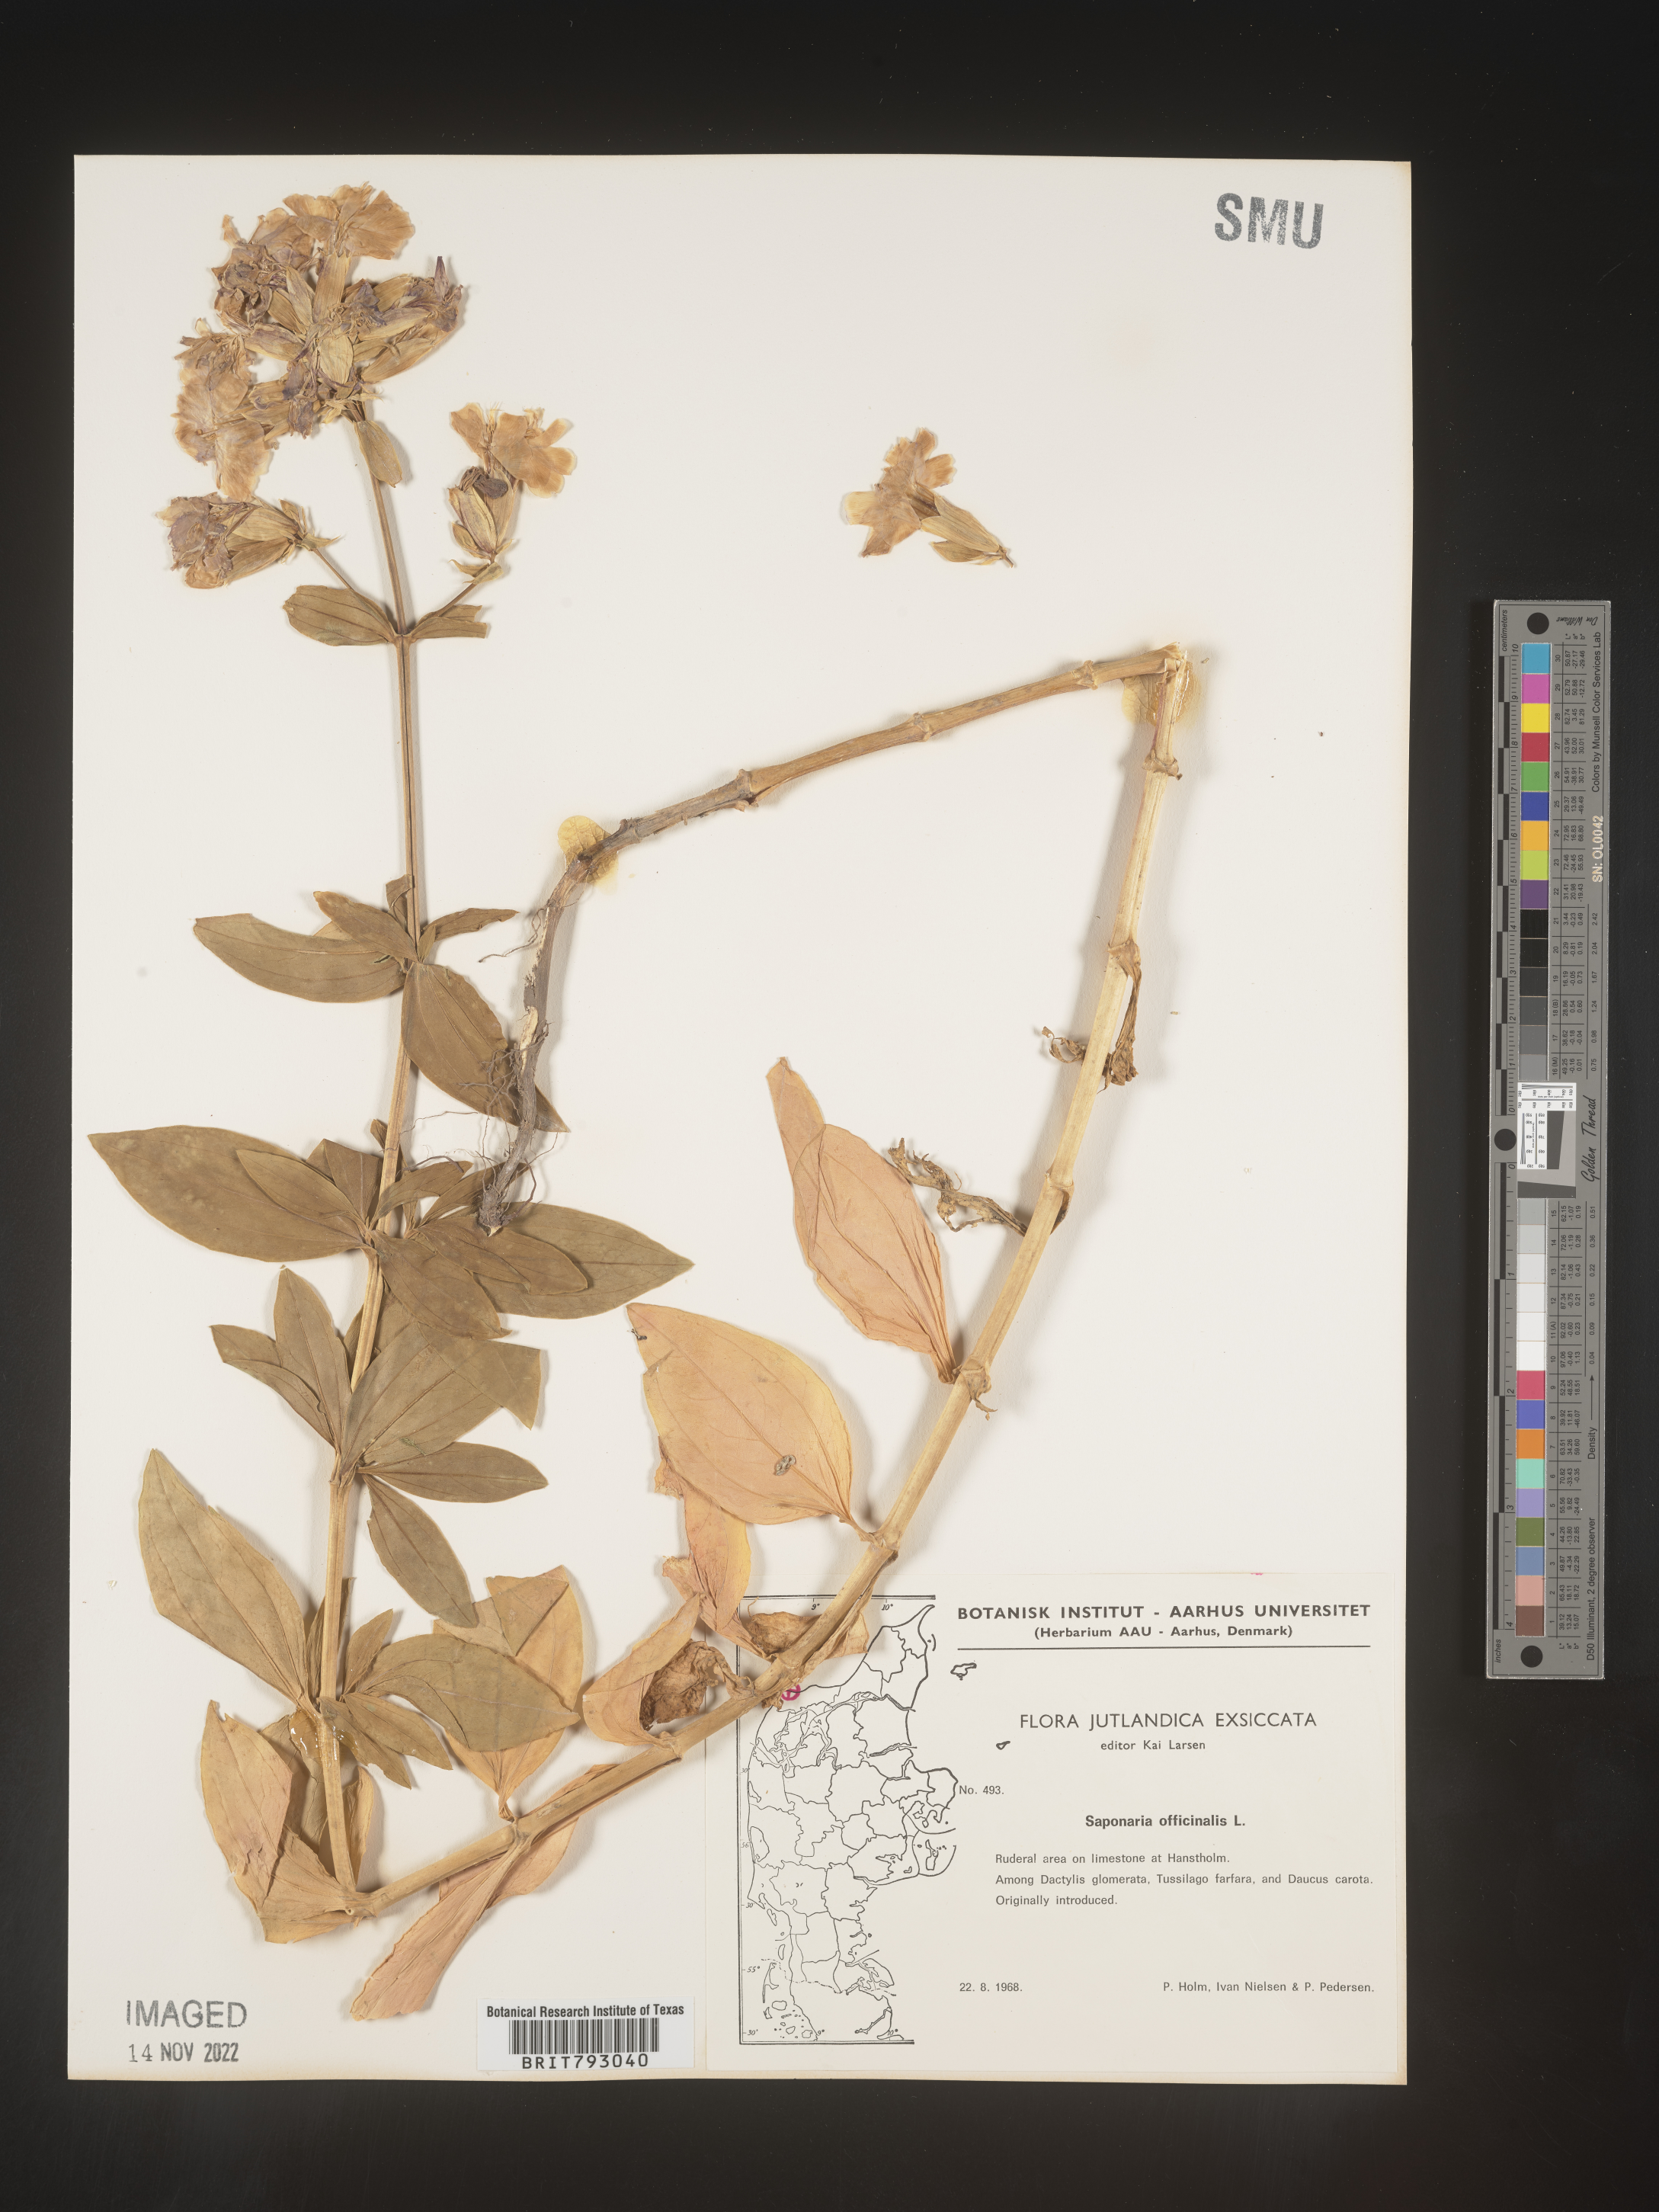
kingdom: Plantae
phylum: Tracheophyta
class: Magnoliopsida
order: Caryophyllales
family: Caryophyllaceae
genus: Saponaria
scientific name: Saponaria
